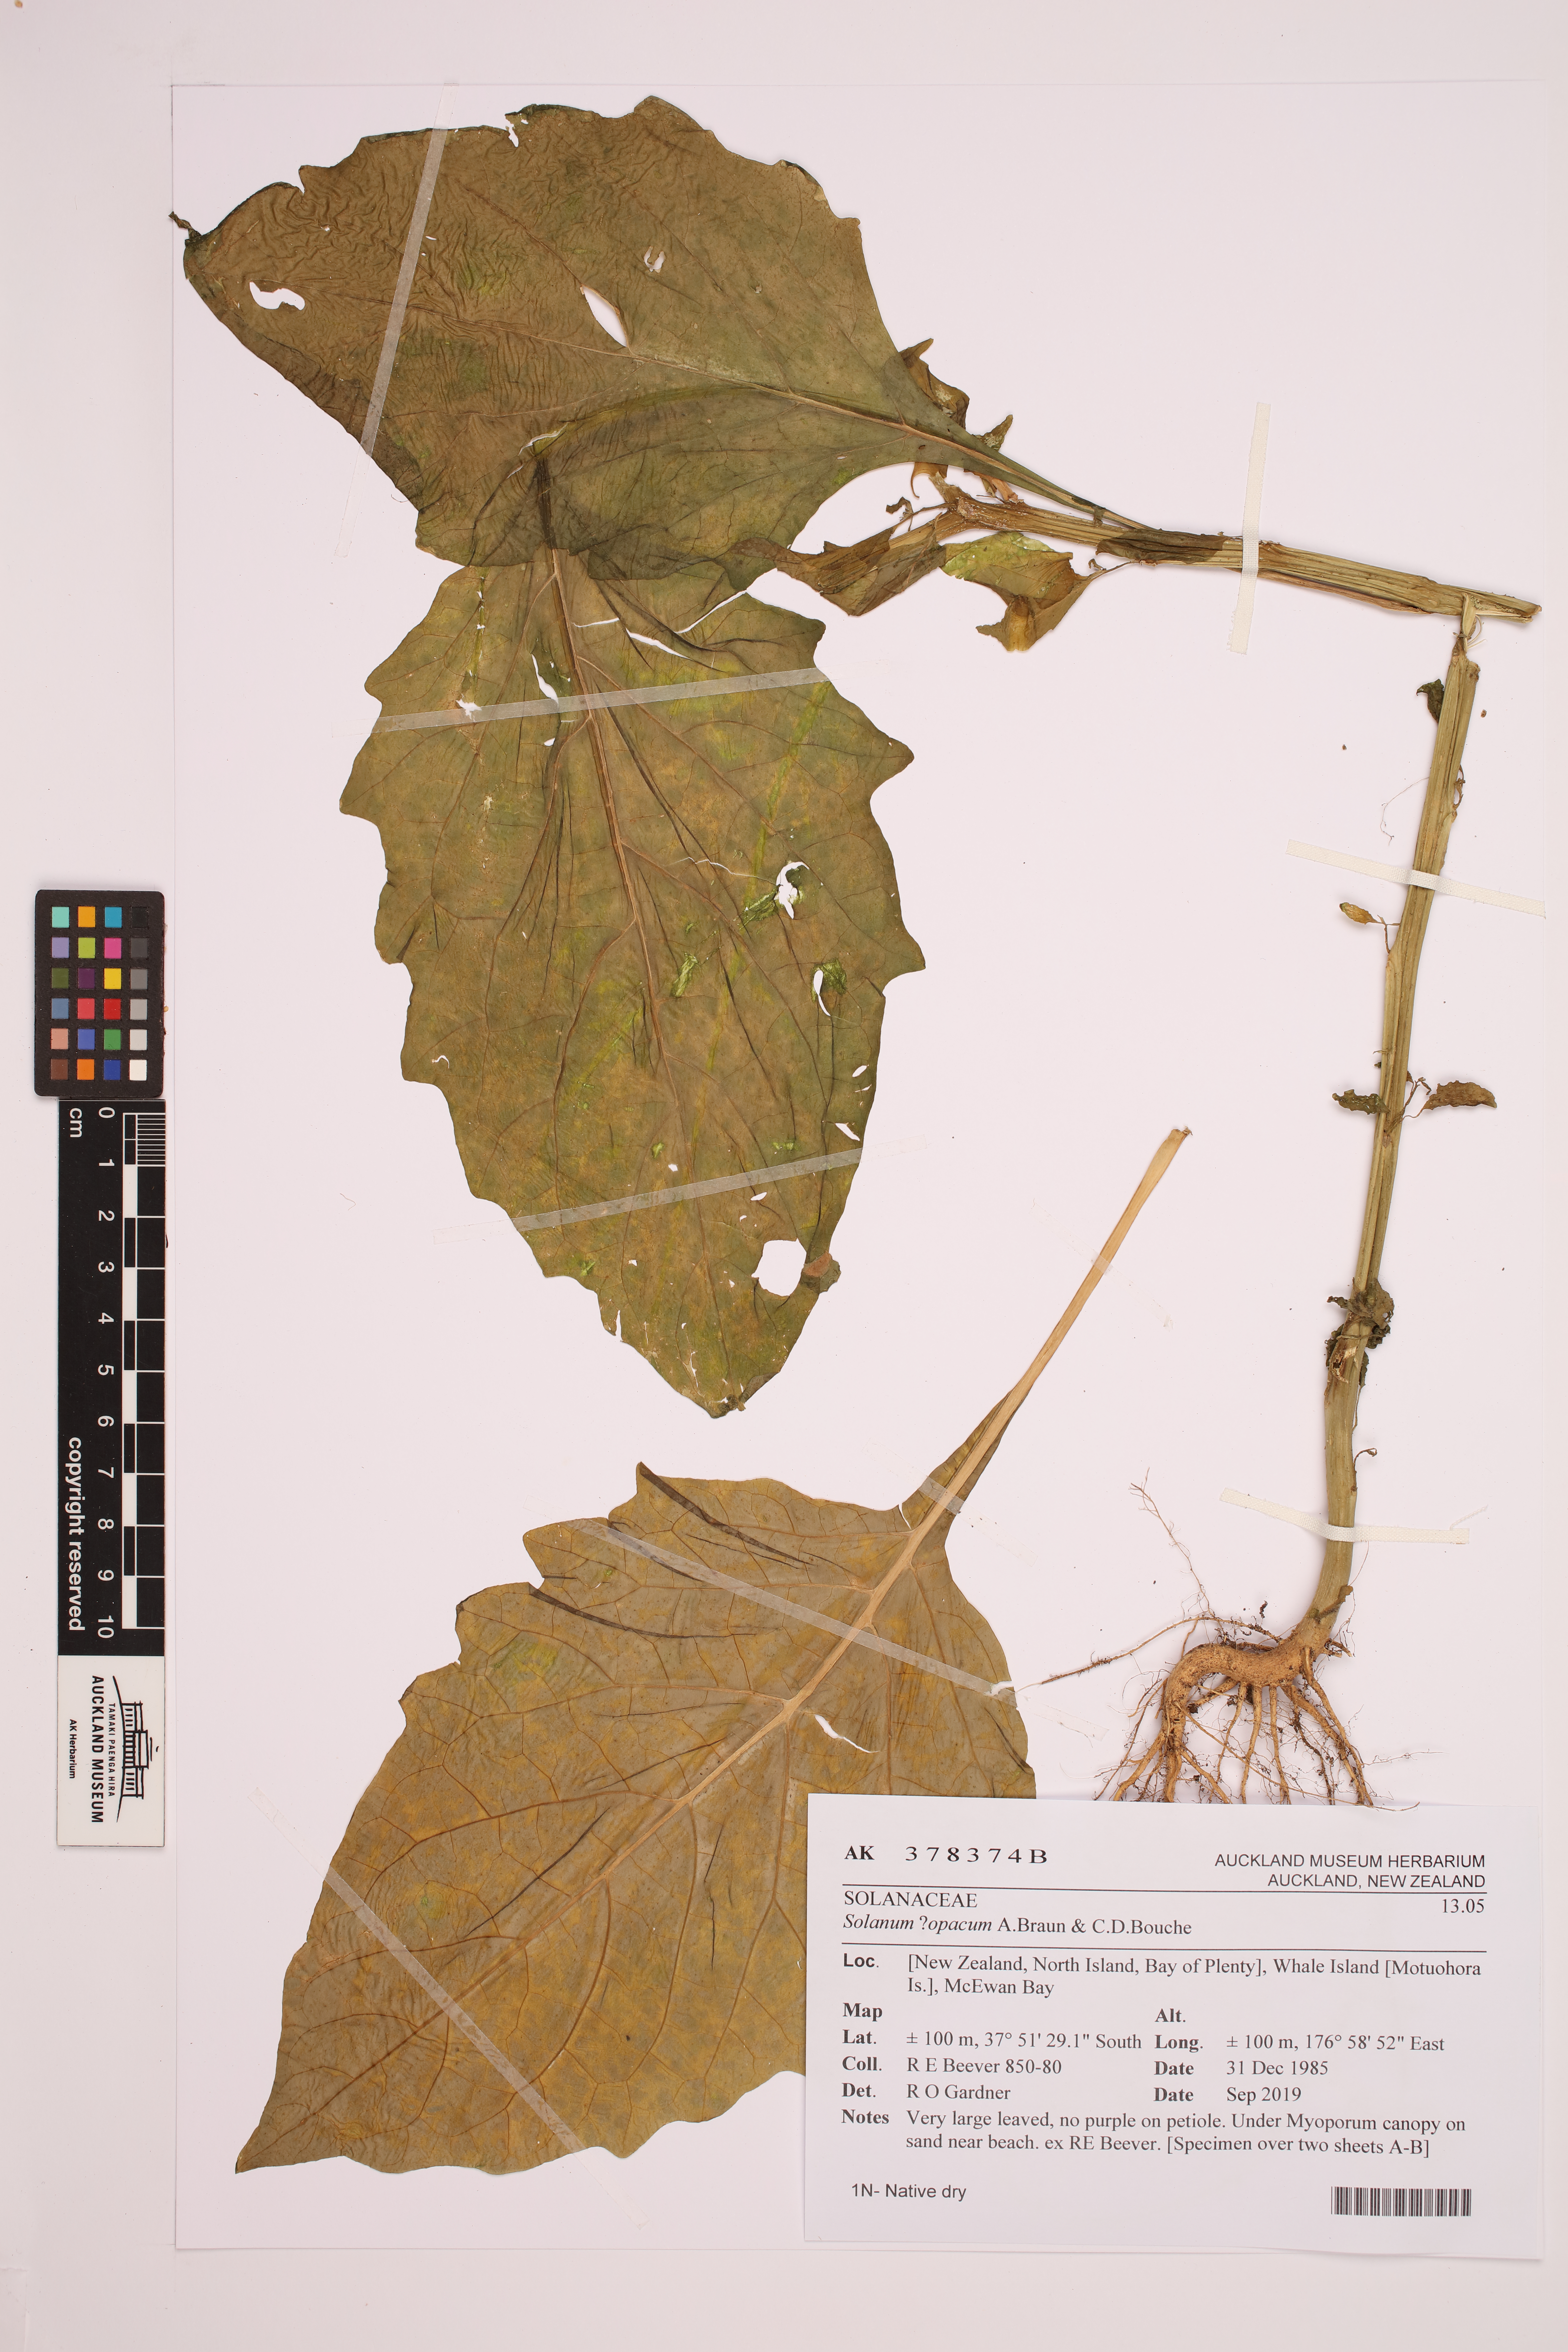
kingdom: Plantae
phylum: Tracheophyta
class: Magnoliopsida
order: Solanales
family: Solanaceae
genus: Solanum
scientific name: Solanum opacum
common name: Green-berry nightshade
